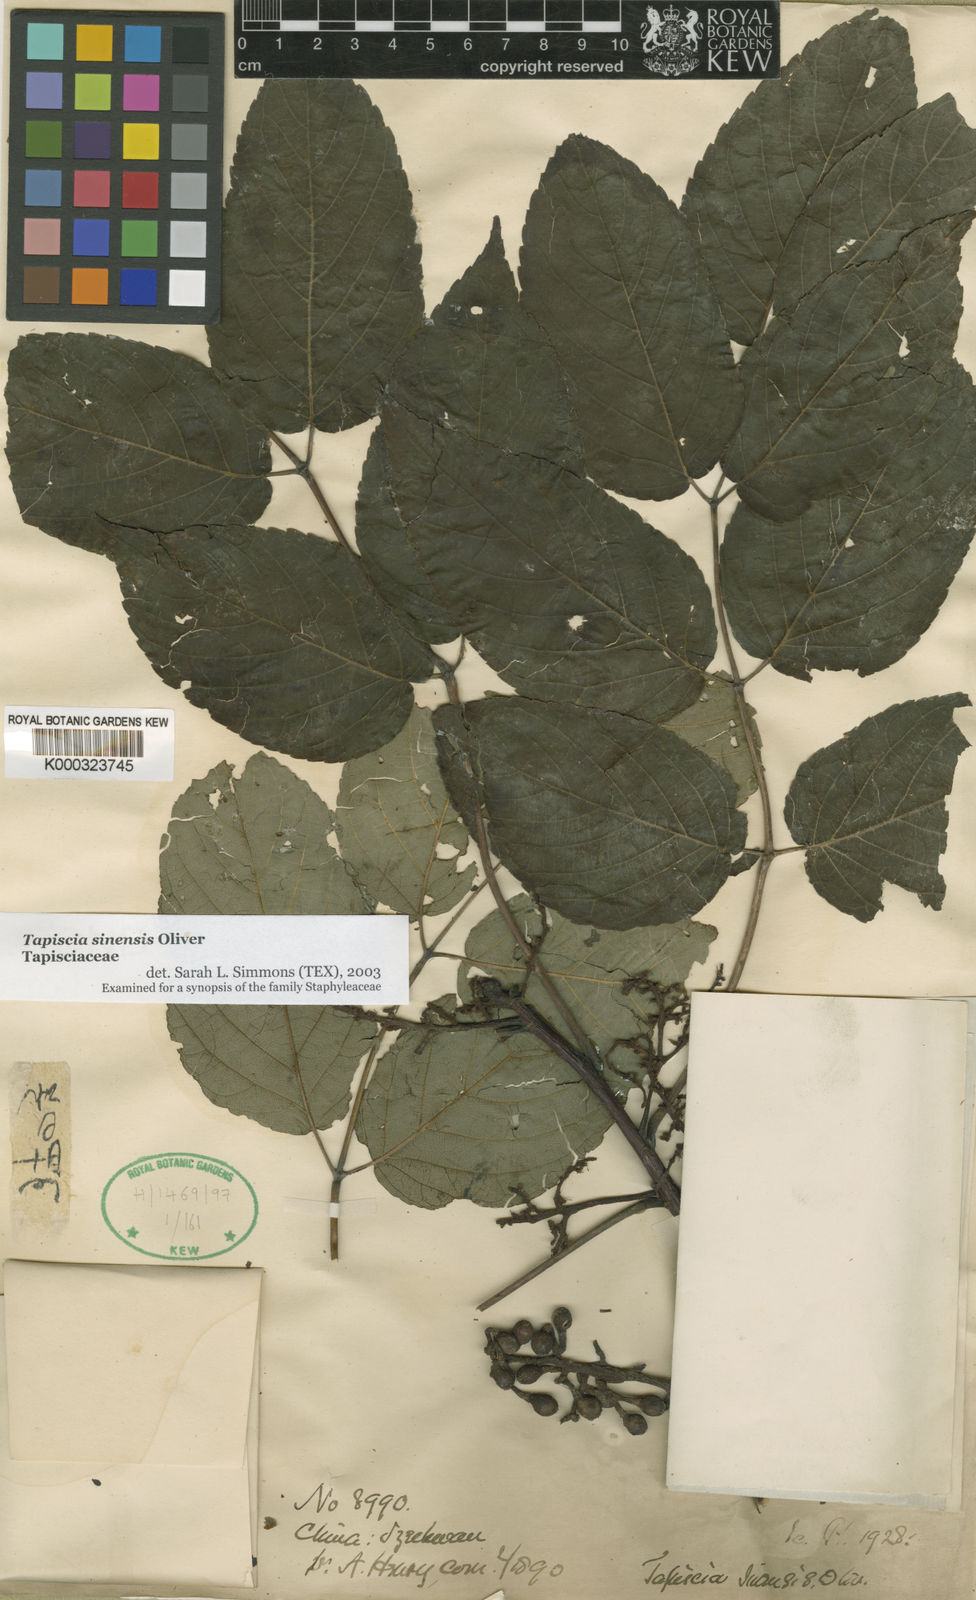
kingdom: Plantae
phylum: Tracheophyta
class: Magnoliopsida
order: Huerteales
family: Tapisciaceae
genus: Tapiscia
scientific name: Tapiscia sinensis
